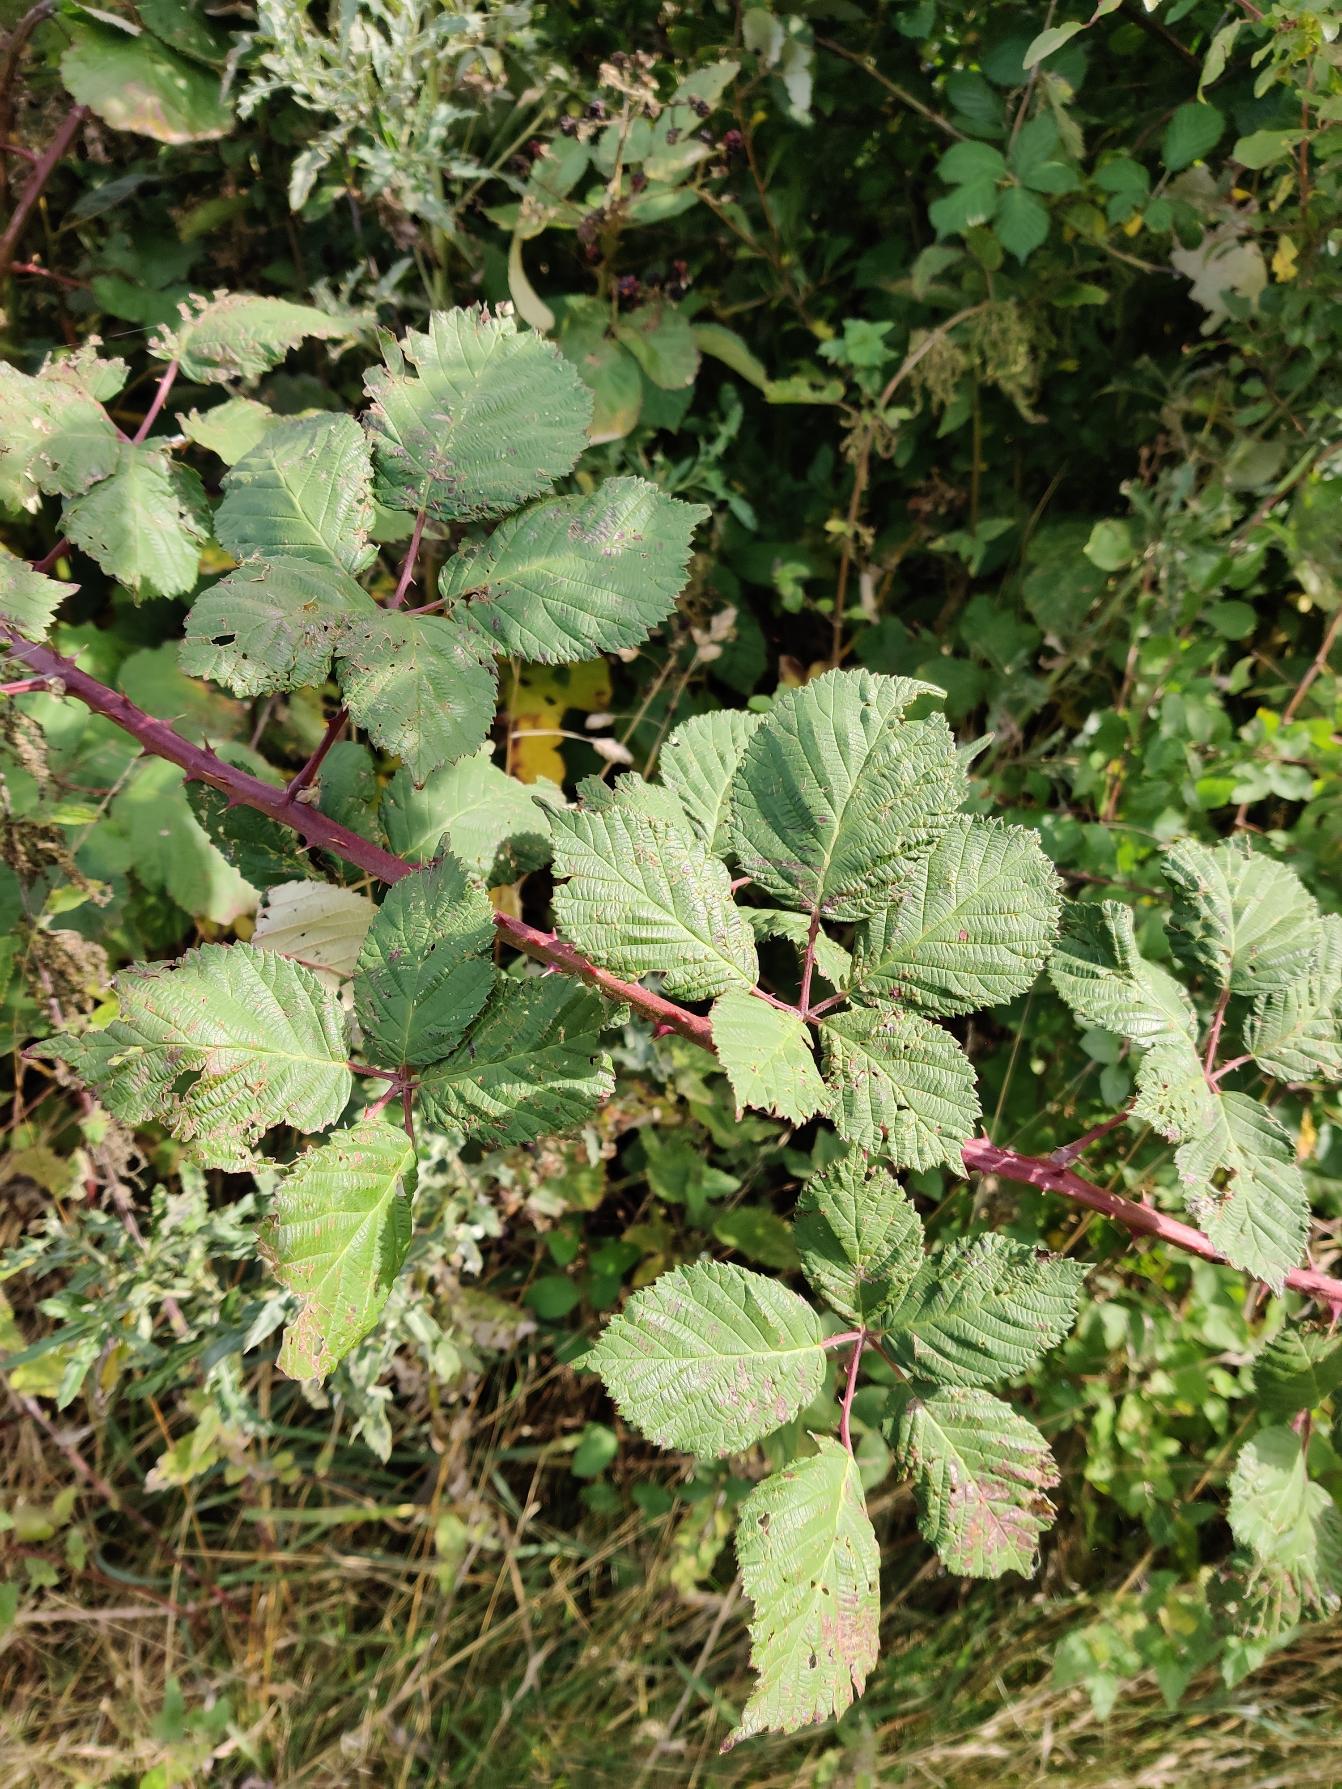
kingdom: Plantae
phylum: Tracheophyta
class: Magnoliopsida
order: Rosales
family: Rosaceae
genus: Rubus
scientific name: Rubus armeniacus
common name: Armensk brombær
